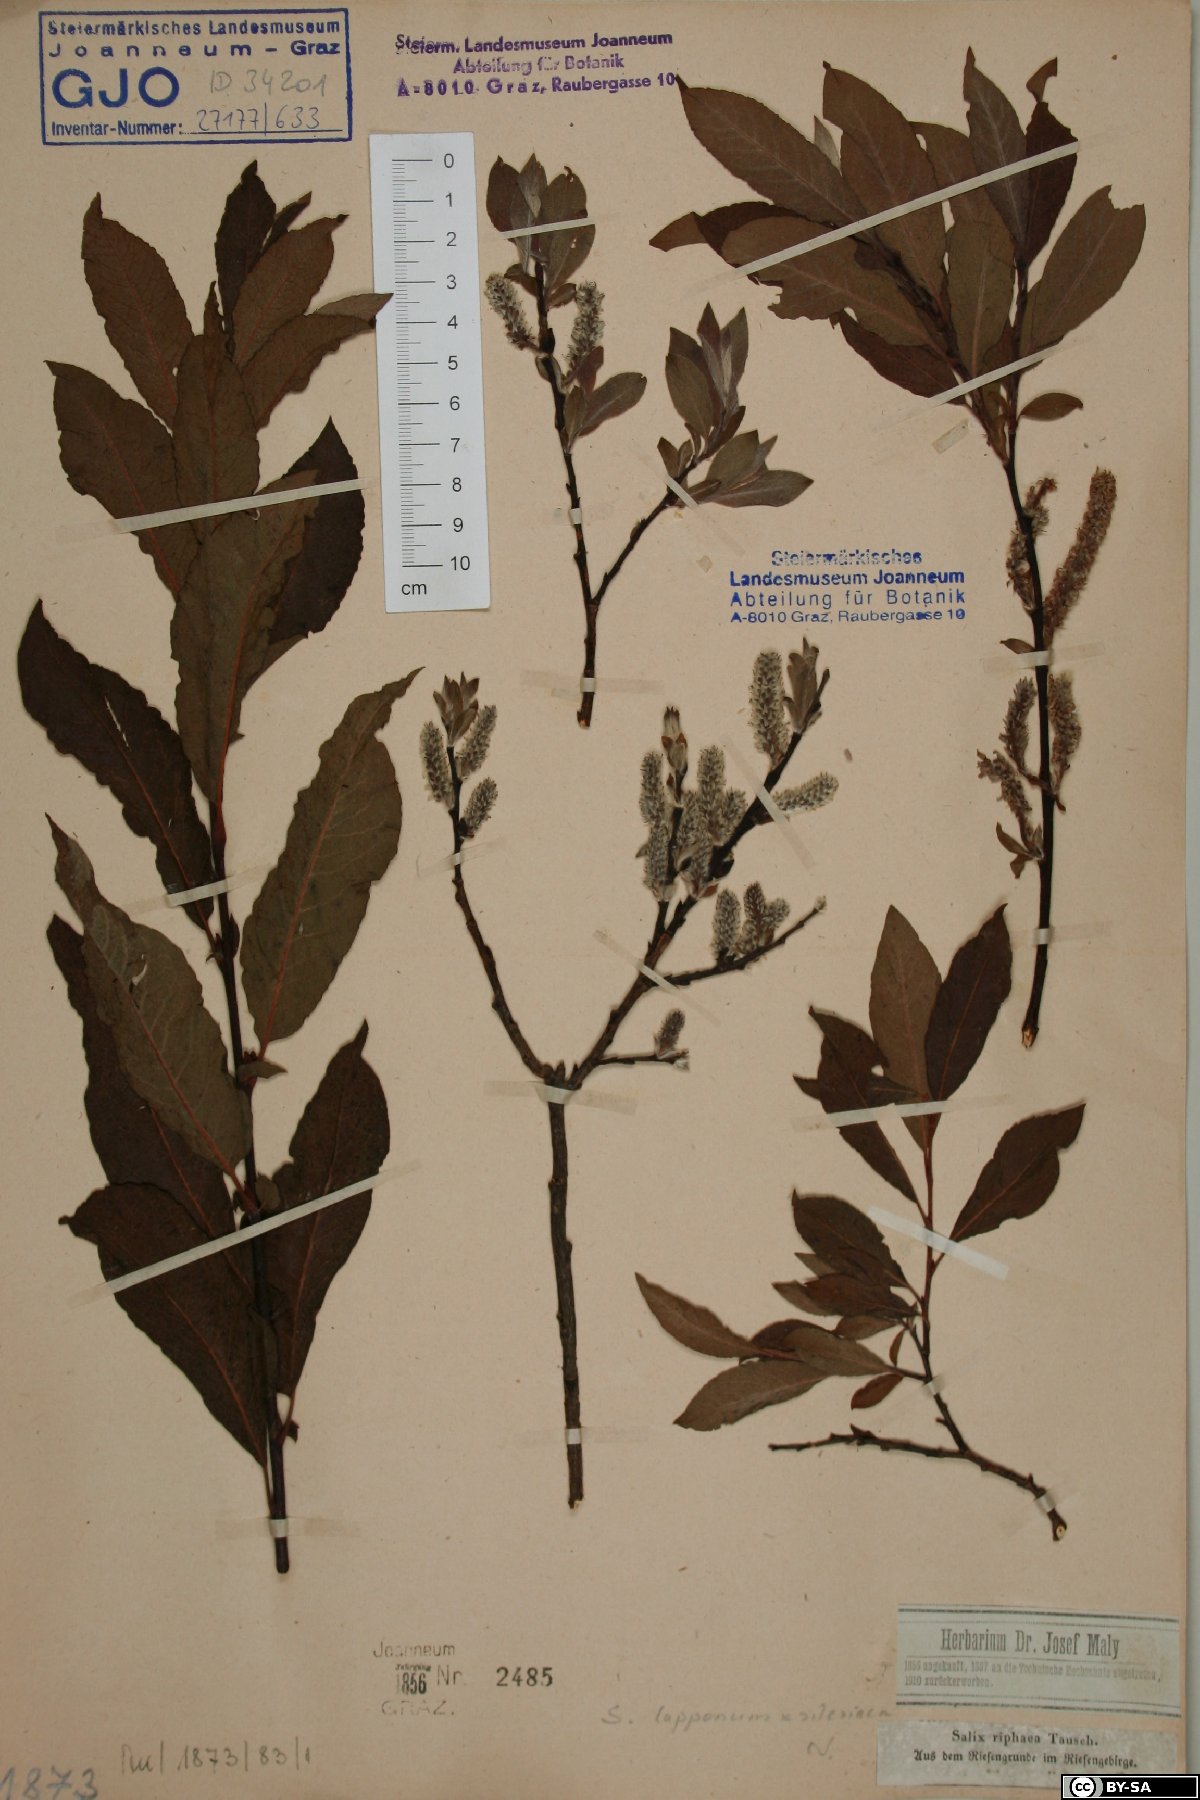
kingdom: Plantae
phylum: Tracheophyta
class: Magnoliopsida
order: Malpighiales
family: Salicaceae
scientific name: Salicaceae
